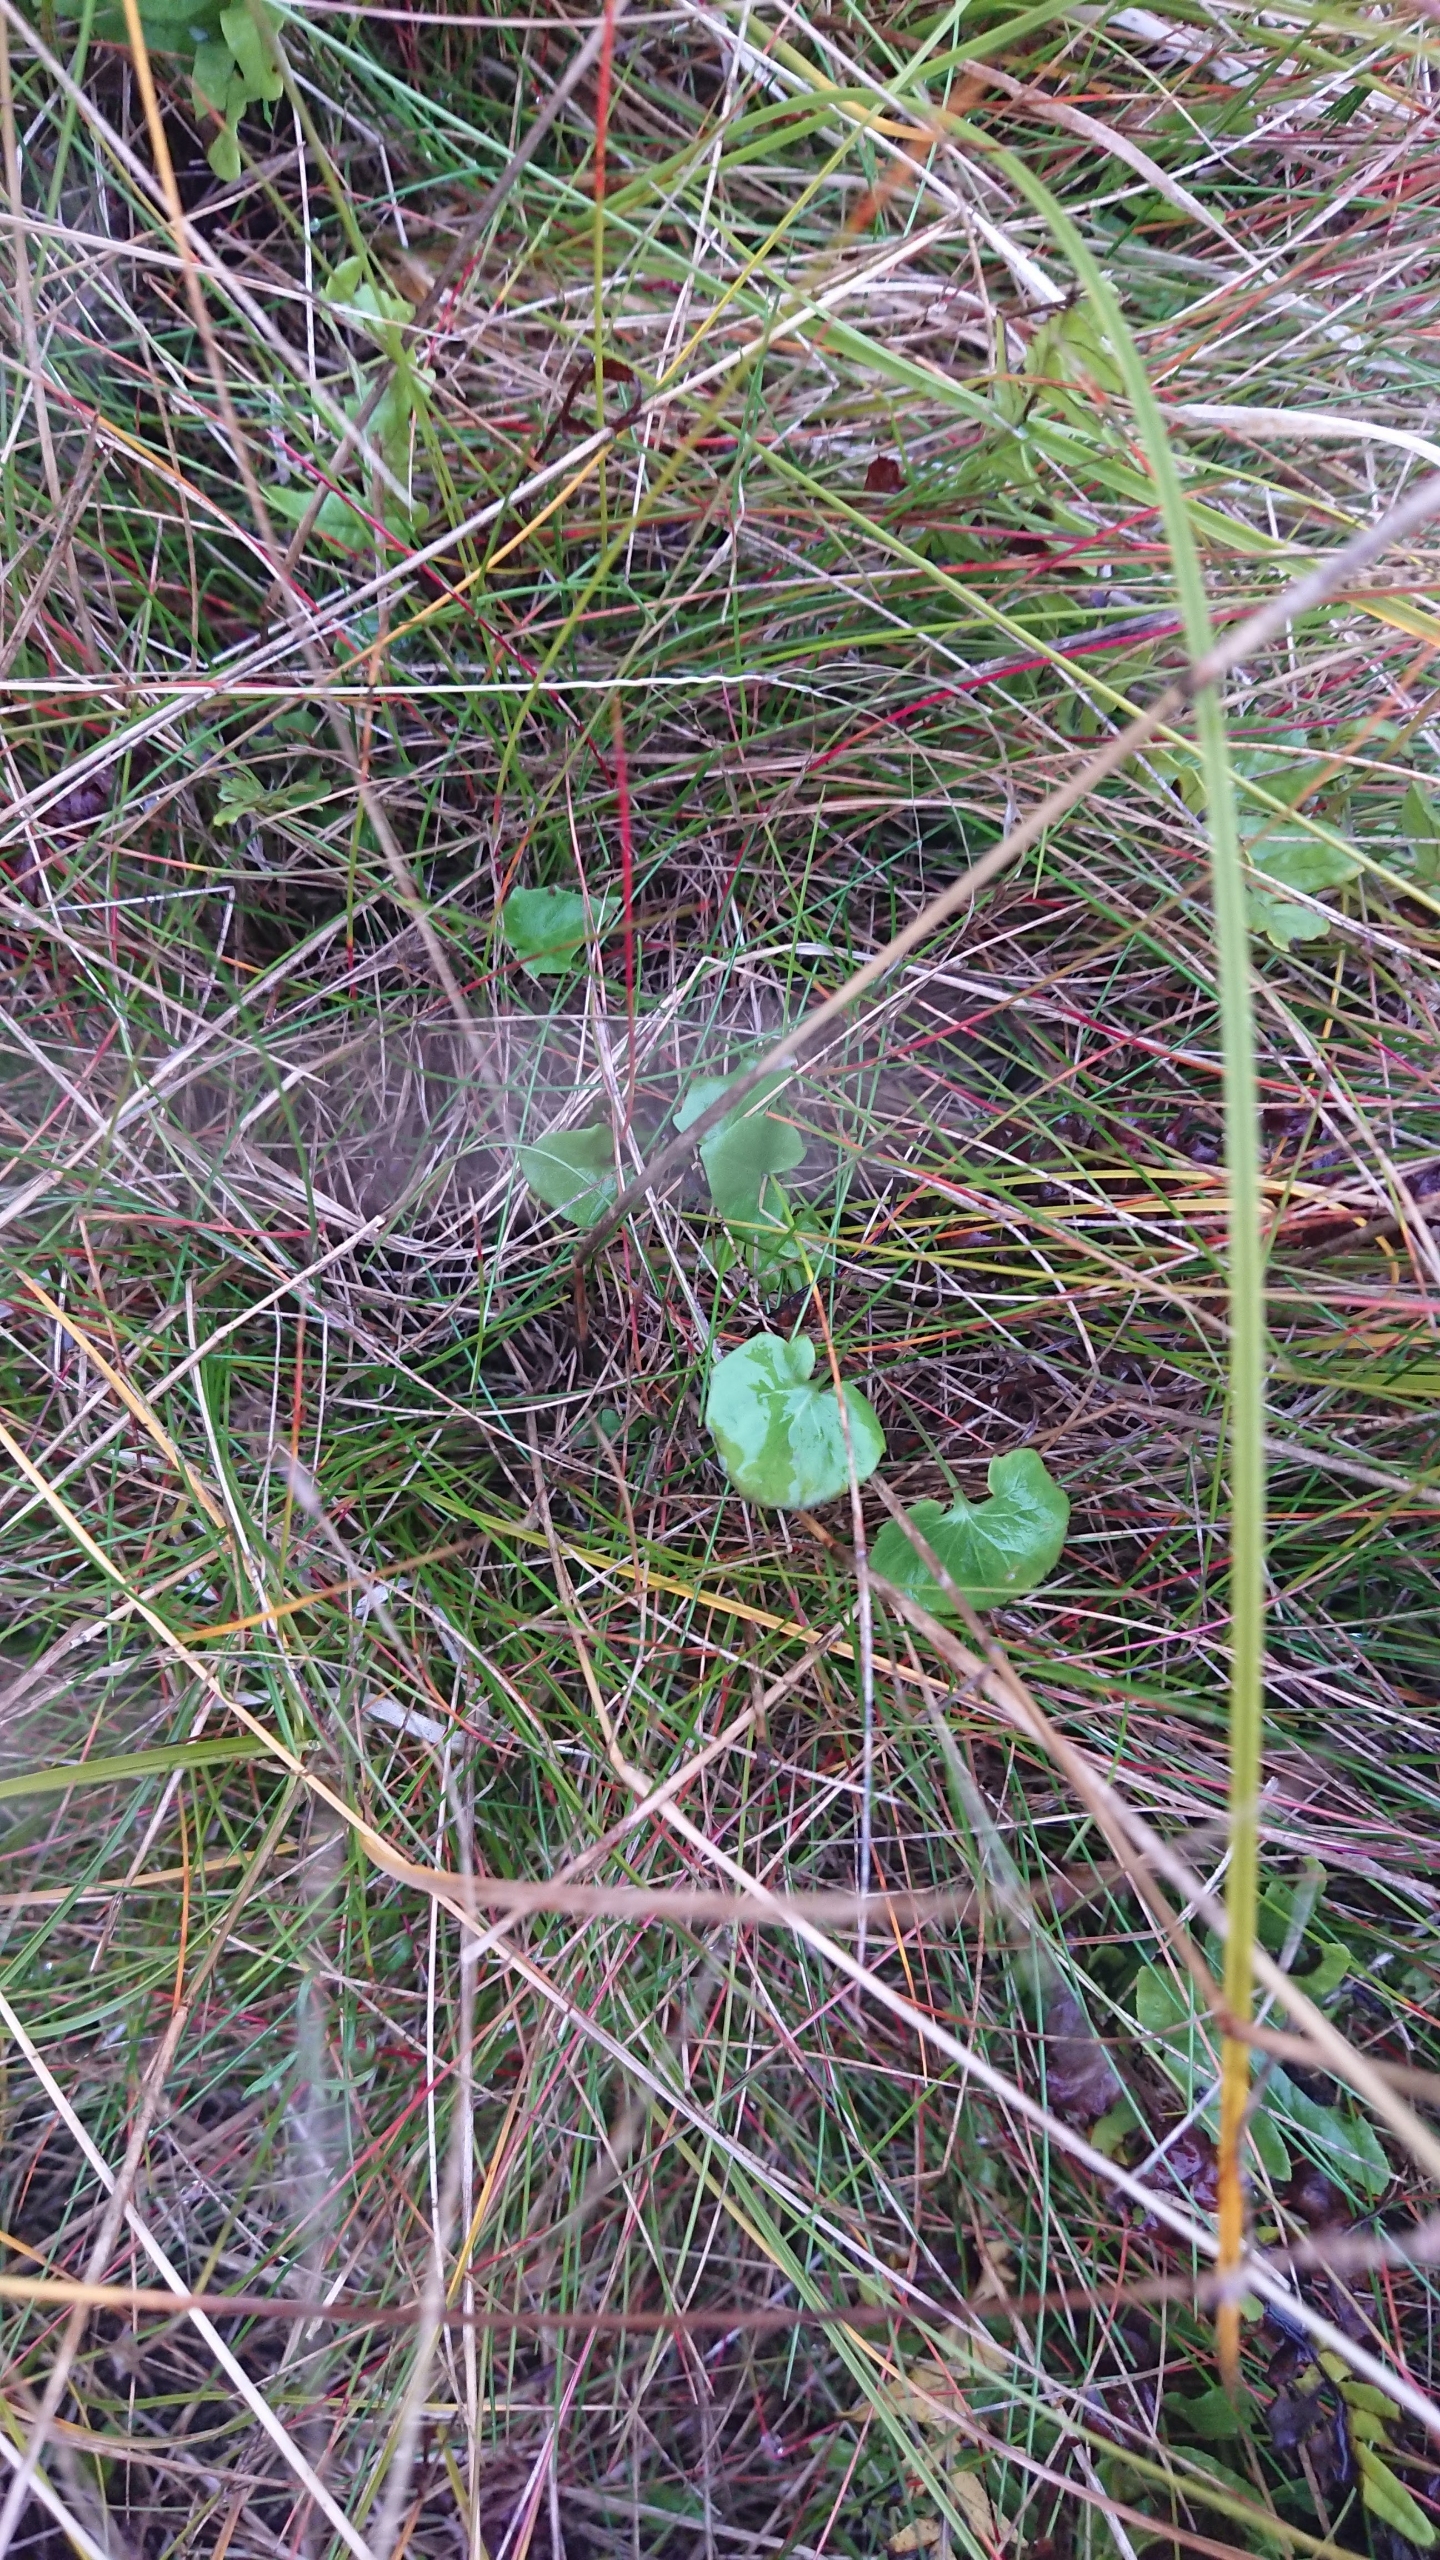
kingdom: Plantae
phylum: Tracheophyta
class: Magnoliopsida
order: Solanales
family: Convolvulaceae
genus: Calystegia
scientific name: Calystegia soldanella
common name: Strand-snerle
